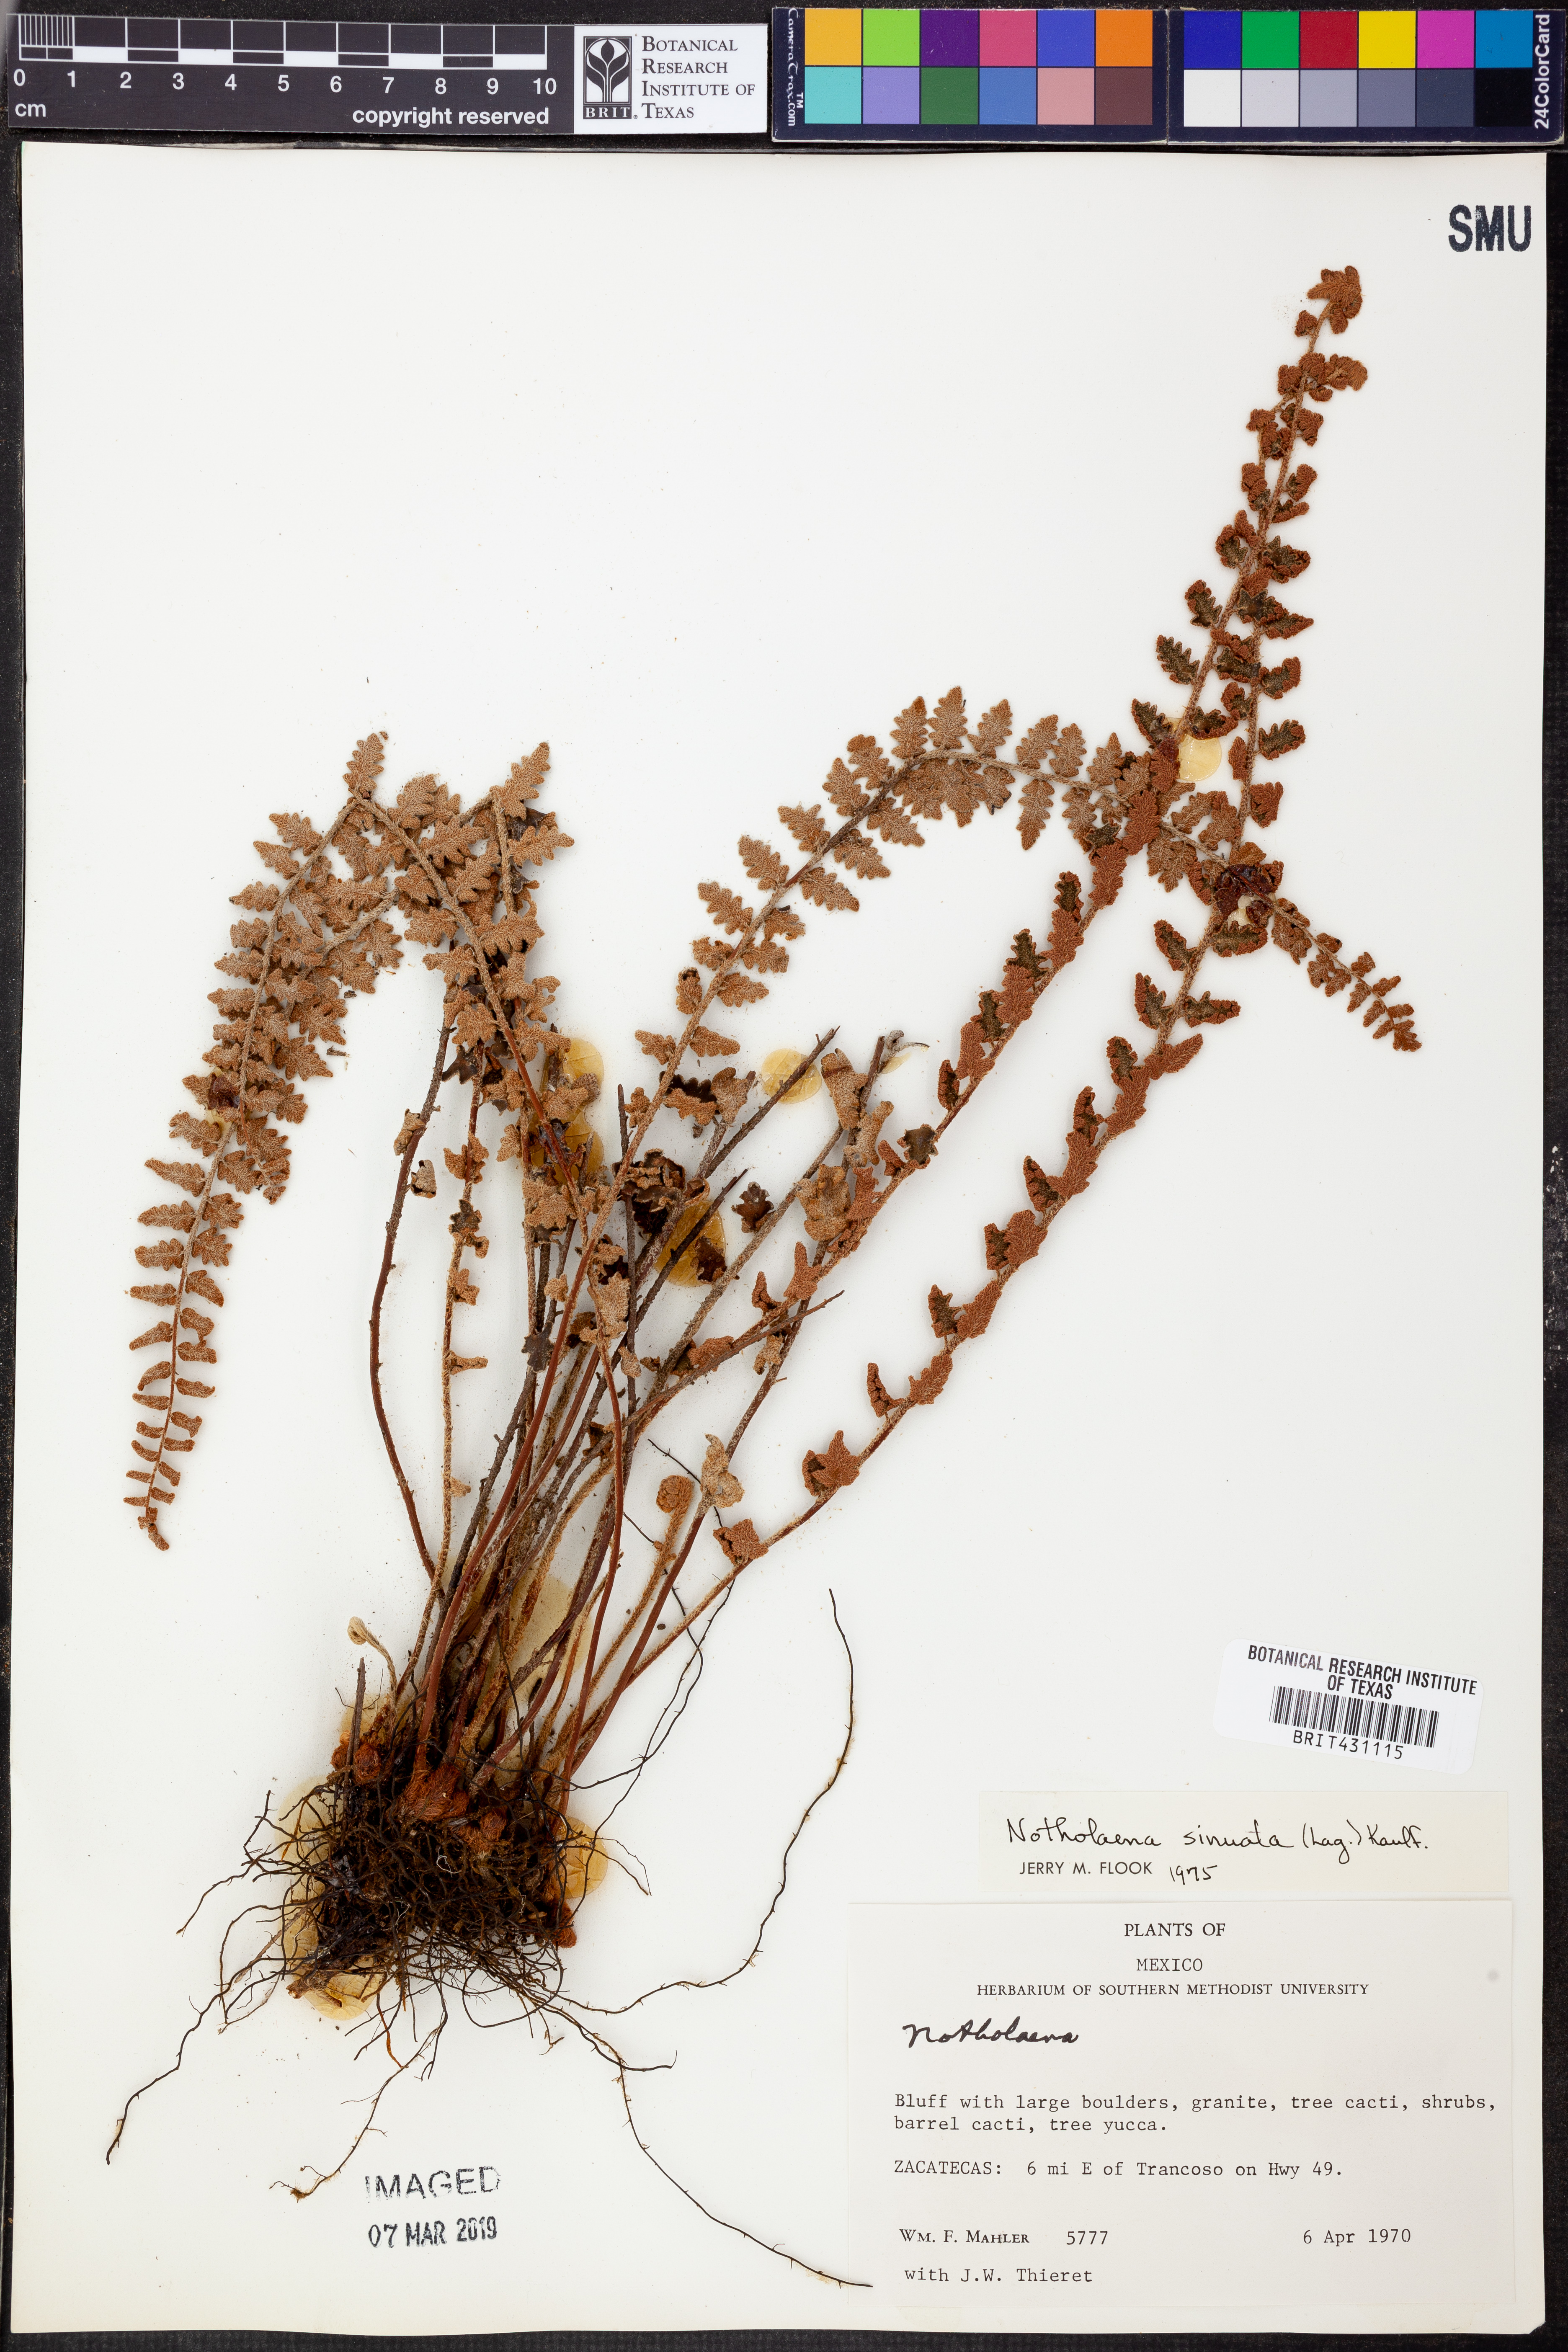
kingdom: Plantae
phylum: Tracheophyta
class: Polypodiopsida
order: Polypodiales
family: Pteridaceae
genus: Astrolepis
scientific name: Astrolepis sinuata
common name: Wavy scaly cloakfern
